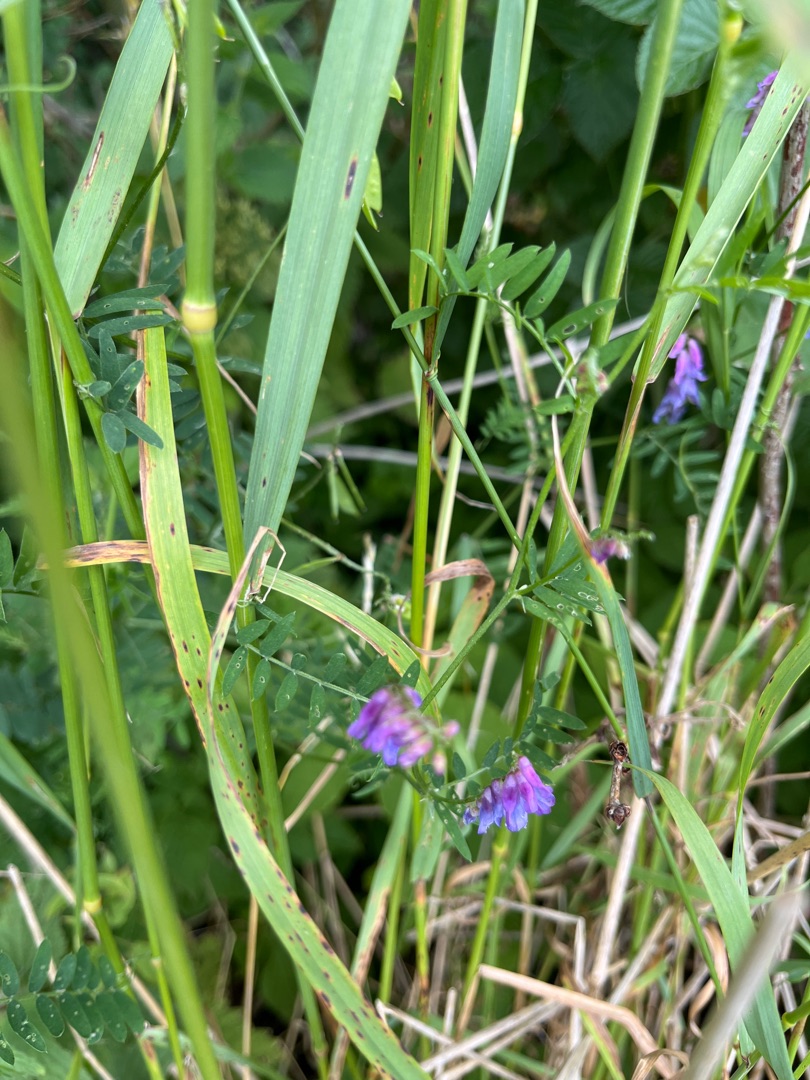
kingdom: Plantae
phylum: Tracheophyta
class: Magnoliopsida
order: Fabales
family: Fabaceae
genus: Vicia
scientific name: Vicia cracca
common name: Muse-vikke
